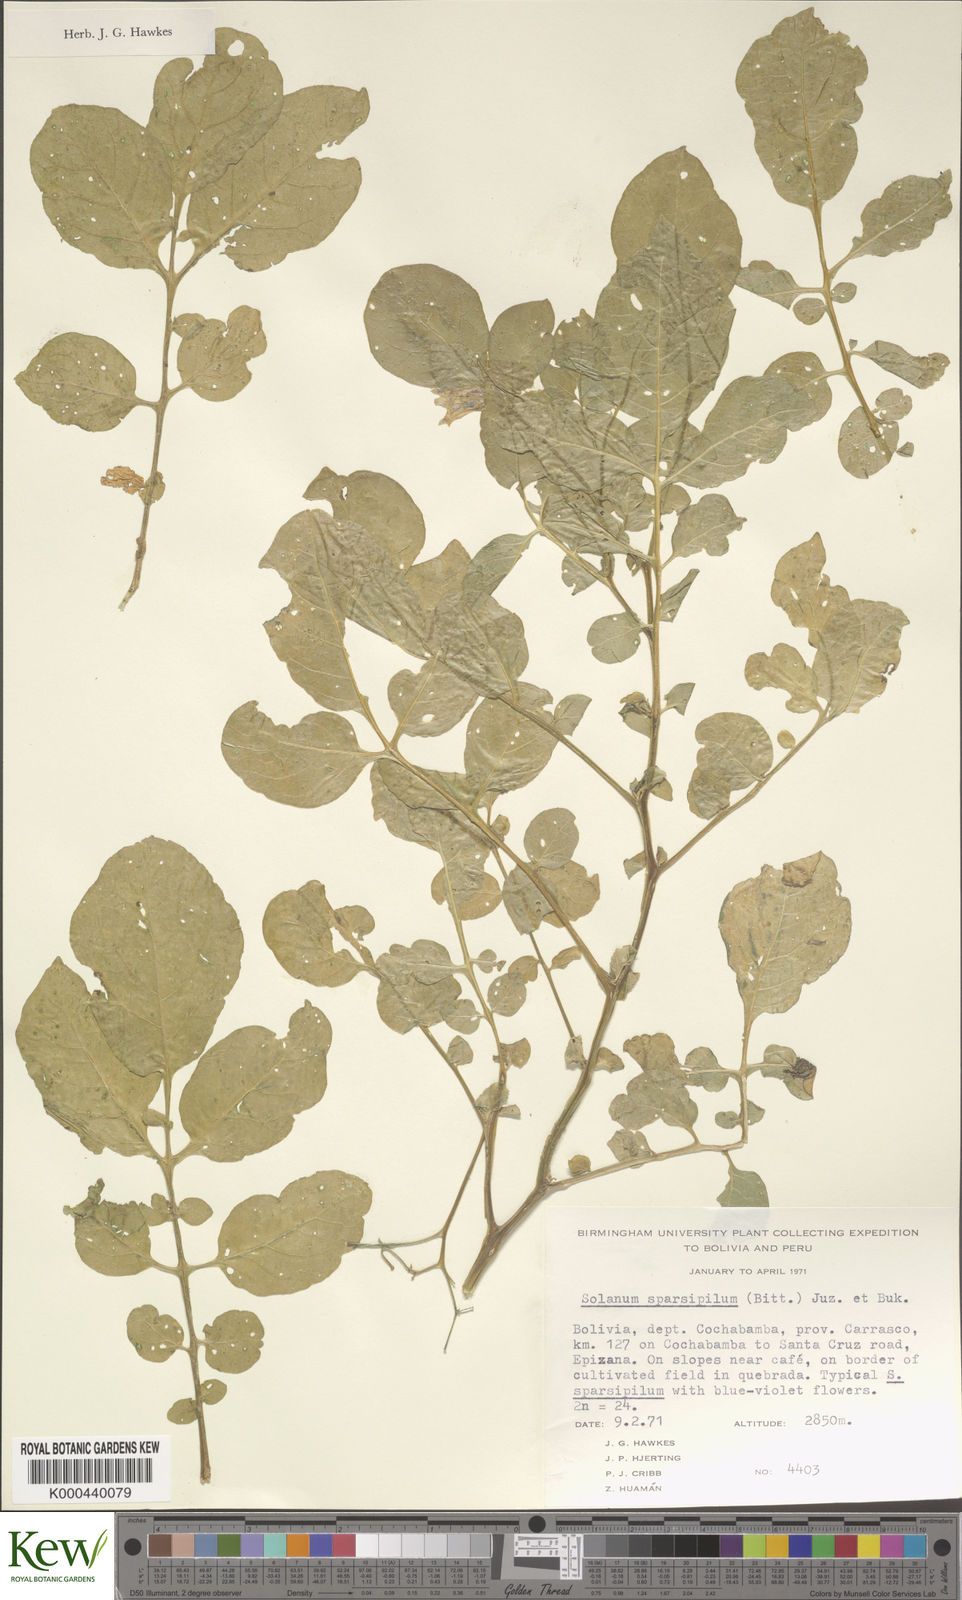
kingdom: Plantae
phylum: Tracheophyta
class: Magnoliopsida
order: Solanales
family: Solanaceae
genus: Solanum
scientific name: Solanum brevicaule
